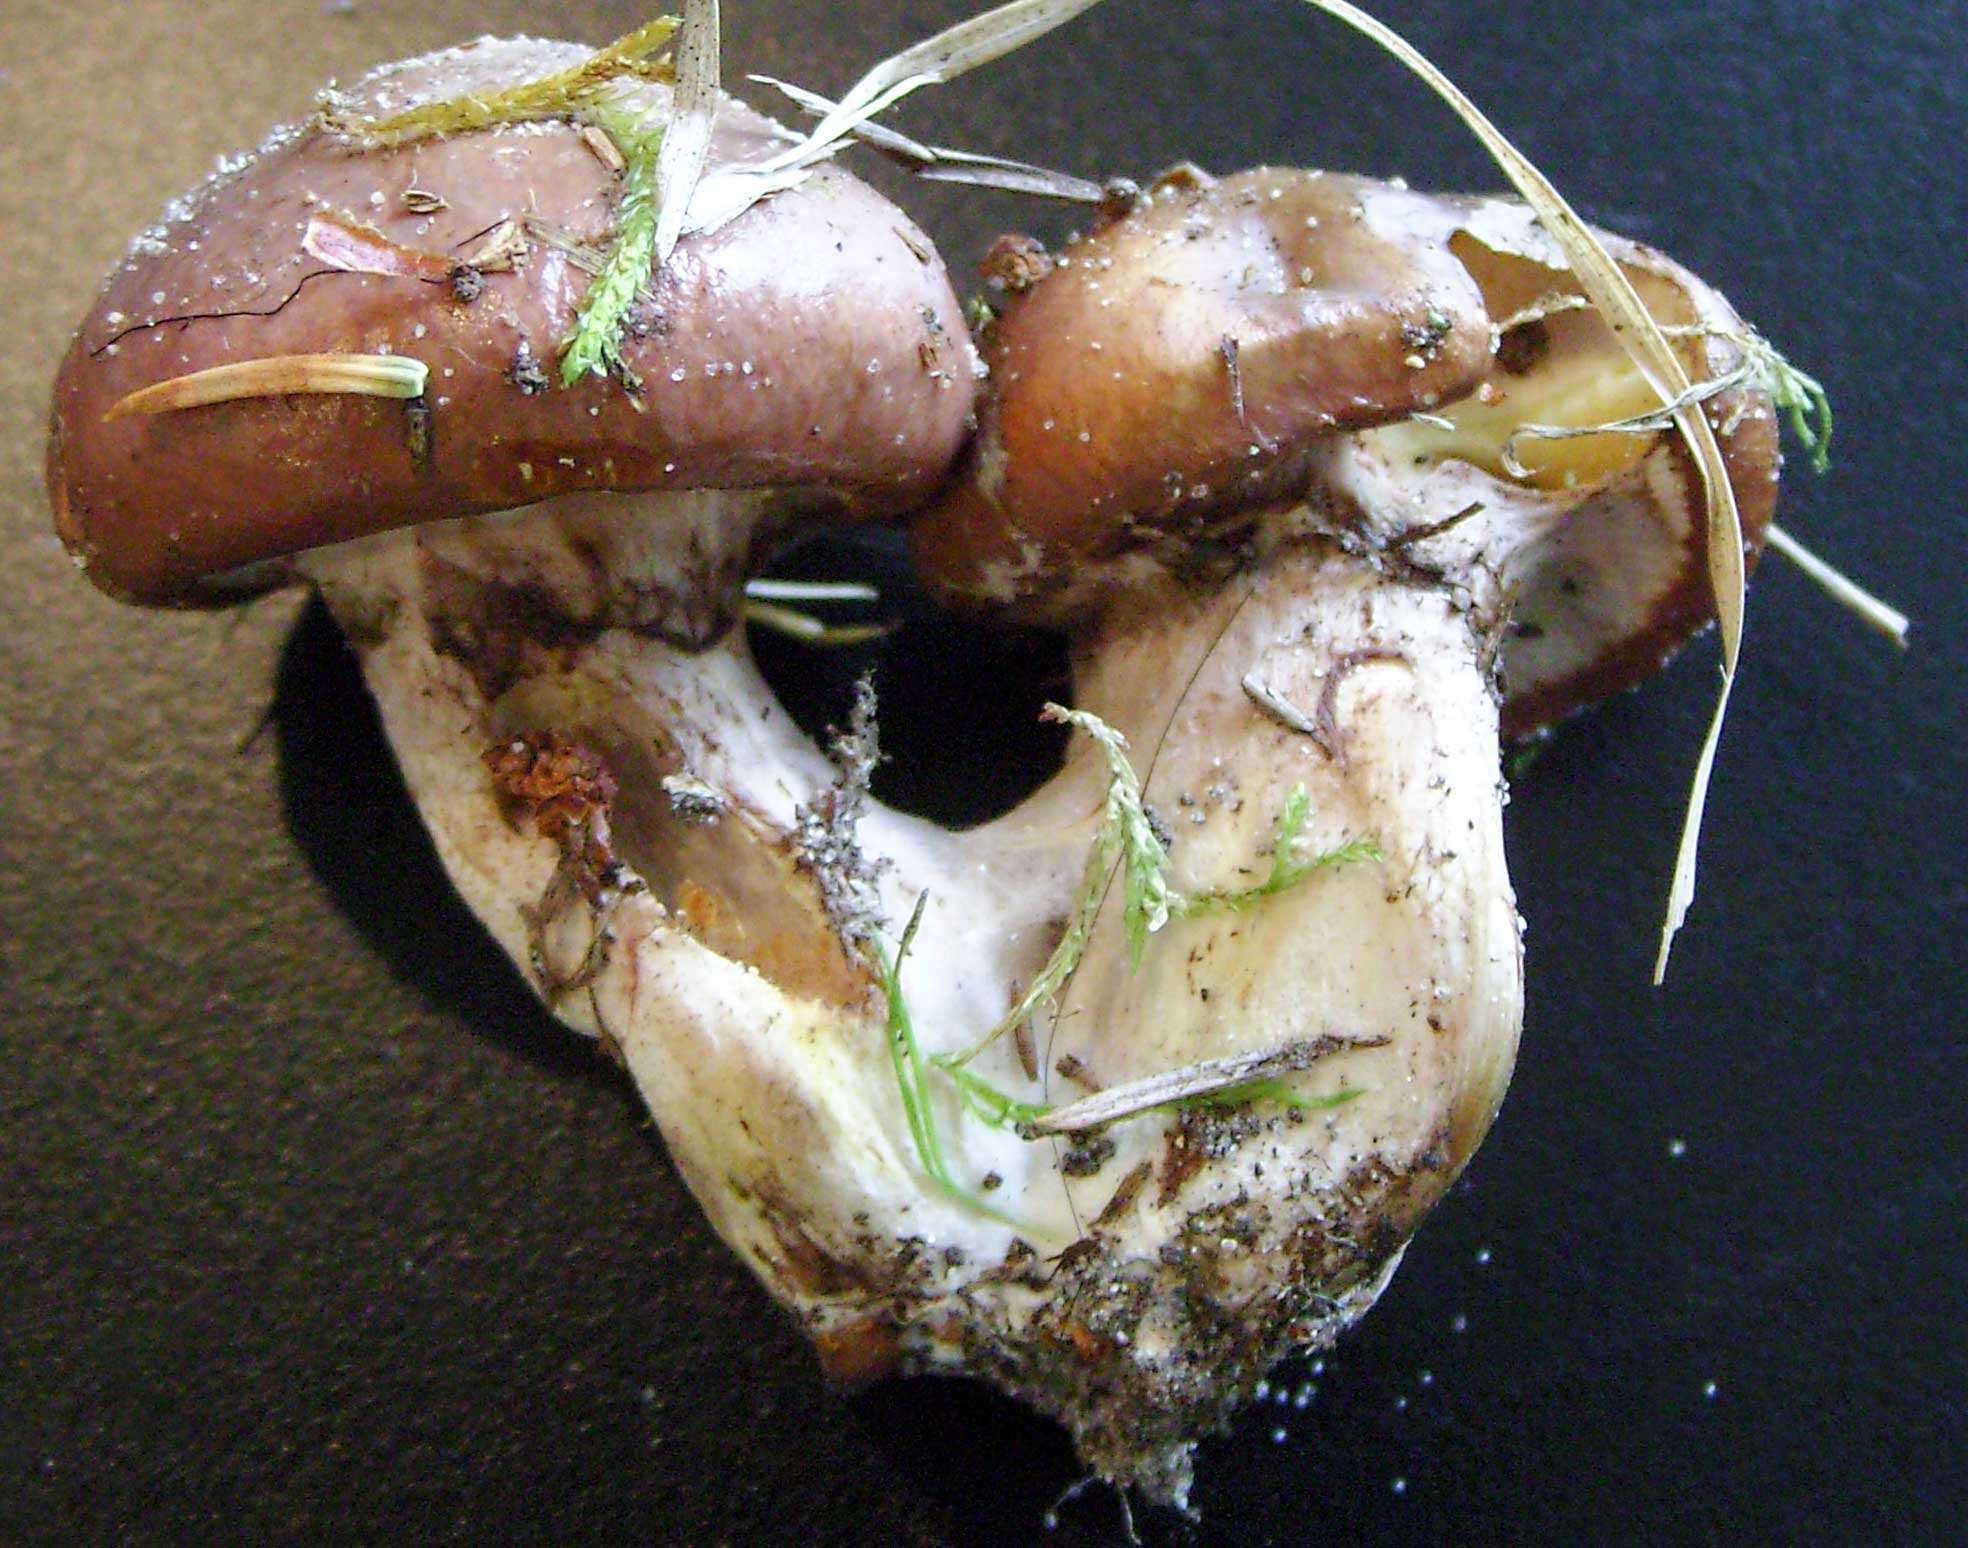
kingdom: Fungi
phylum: Basidiomycota
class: Agaricomycetes
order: Boletales
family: Suillaceae
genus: Suillus
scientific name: Suillus luteus
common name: brungul slimrørhat
